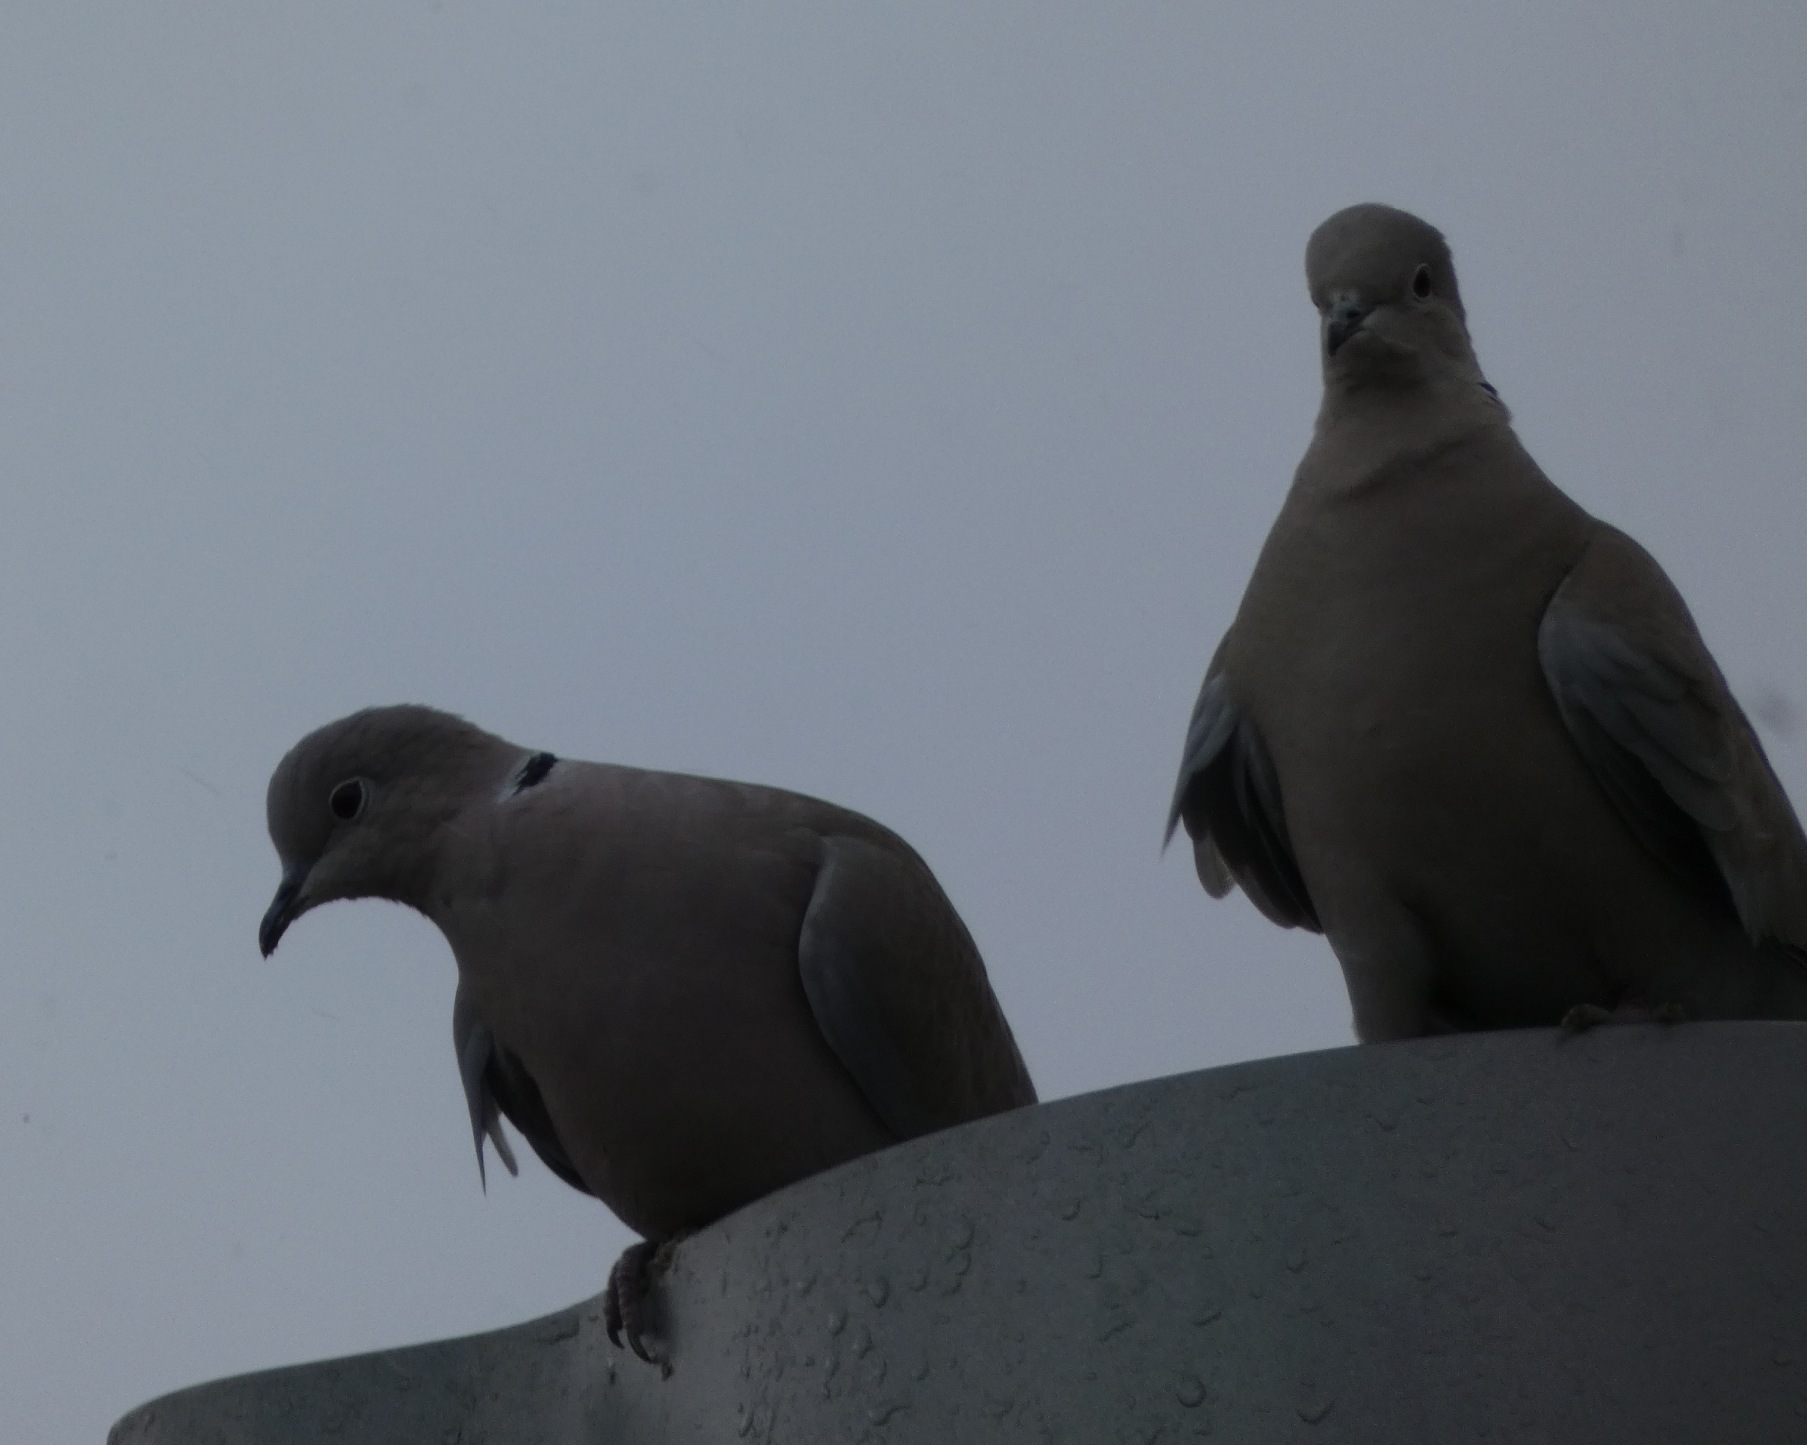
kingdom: Animalia
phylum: Chordata
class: Aves
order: Columbiformes
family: Columbidae
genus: Streptopelia
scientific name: Streptopelia decaocto
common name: Tyrkerdue
